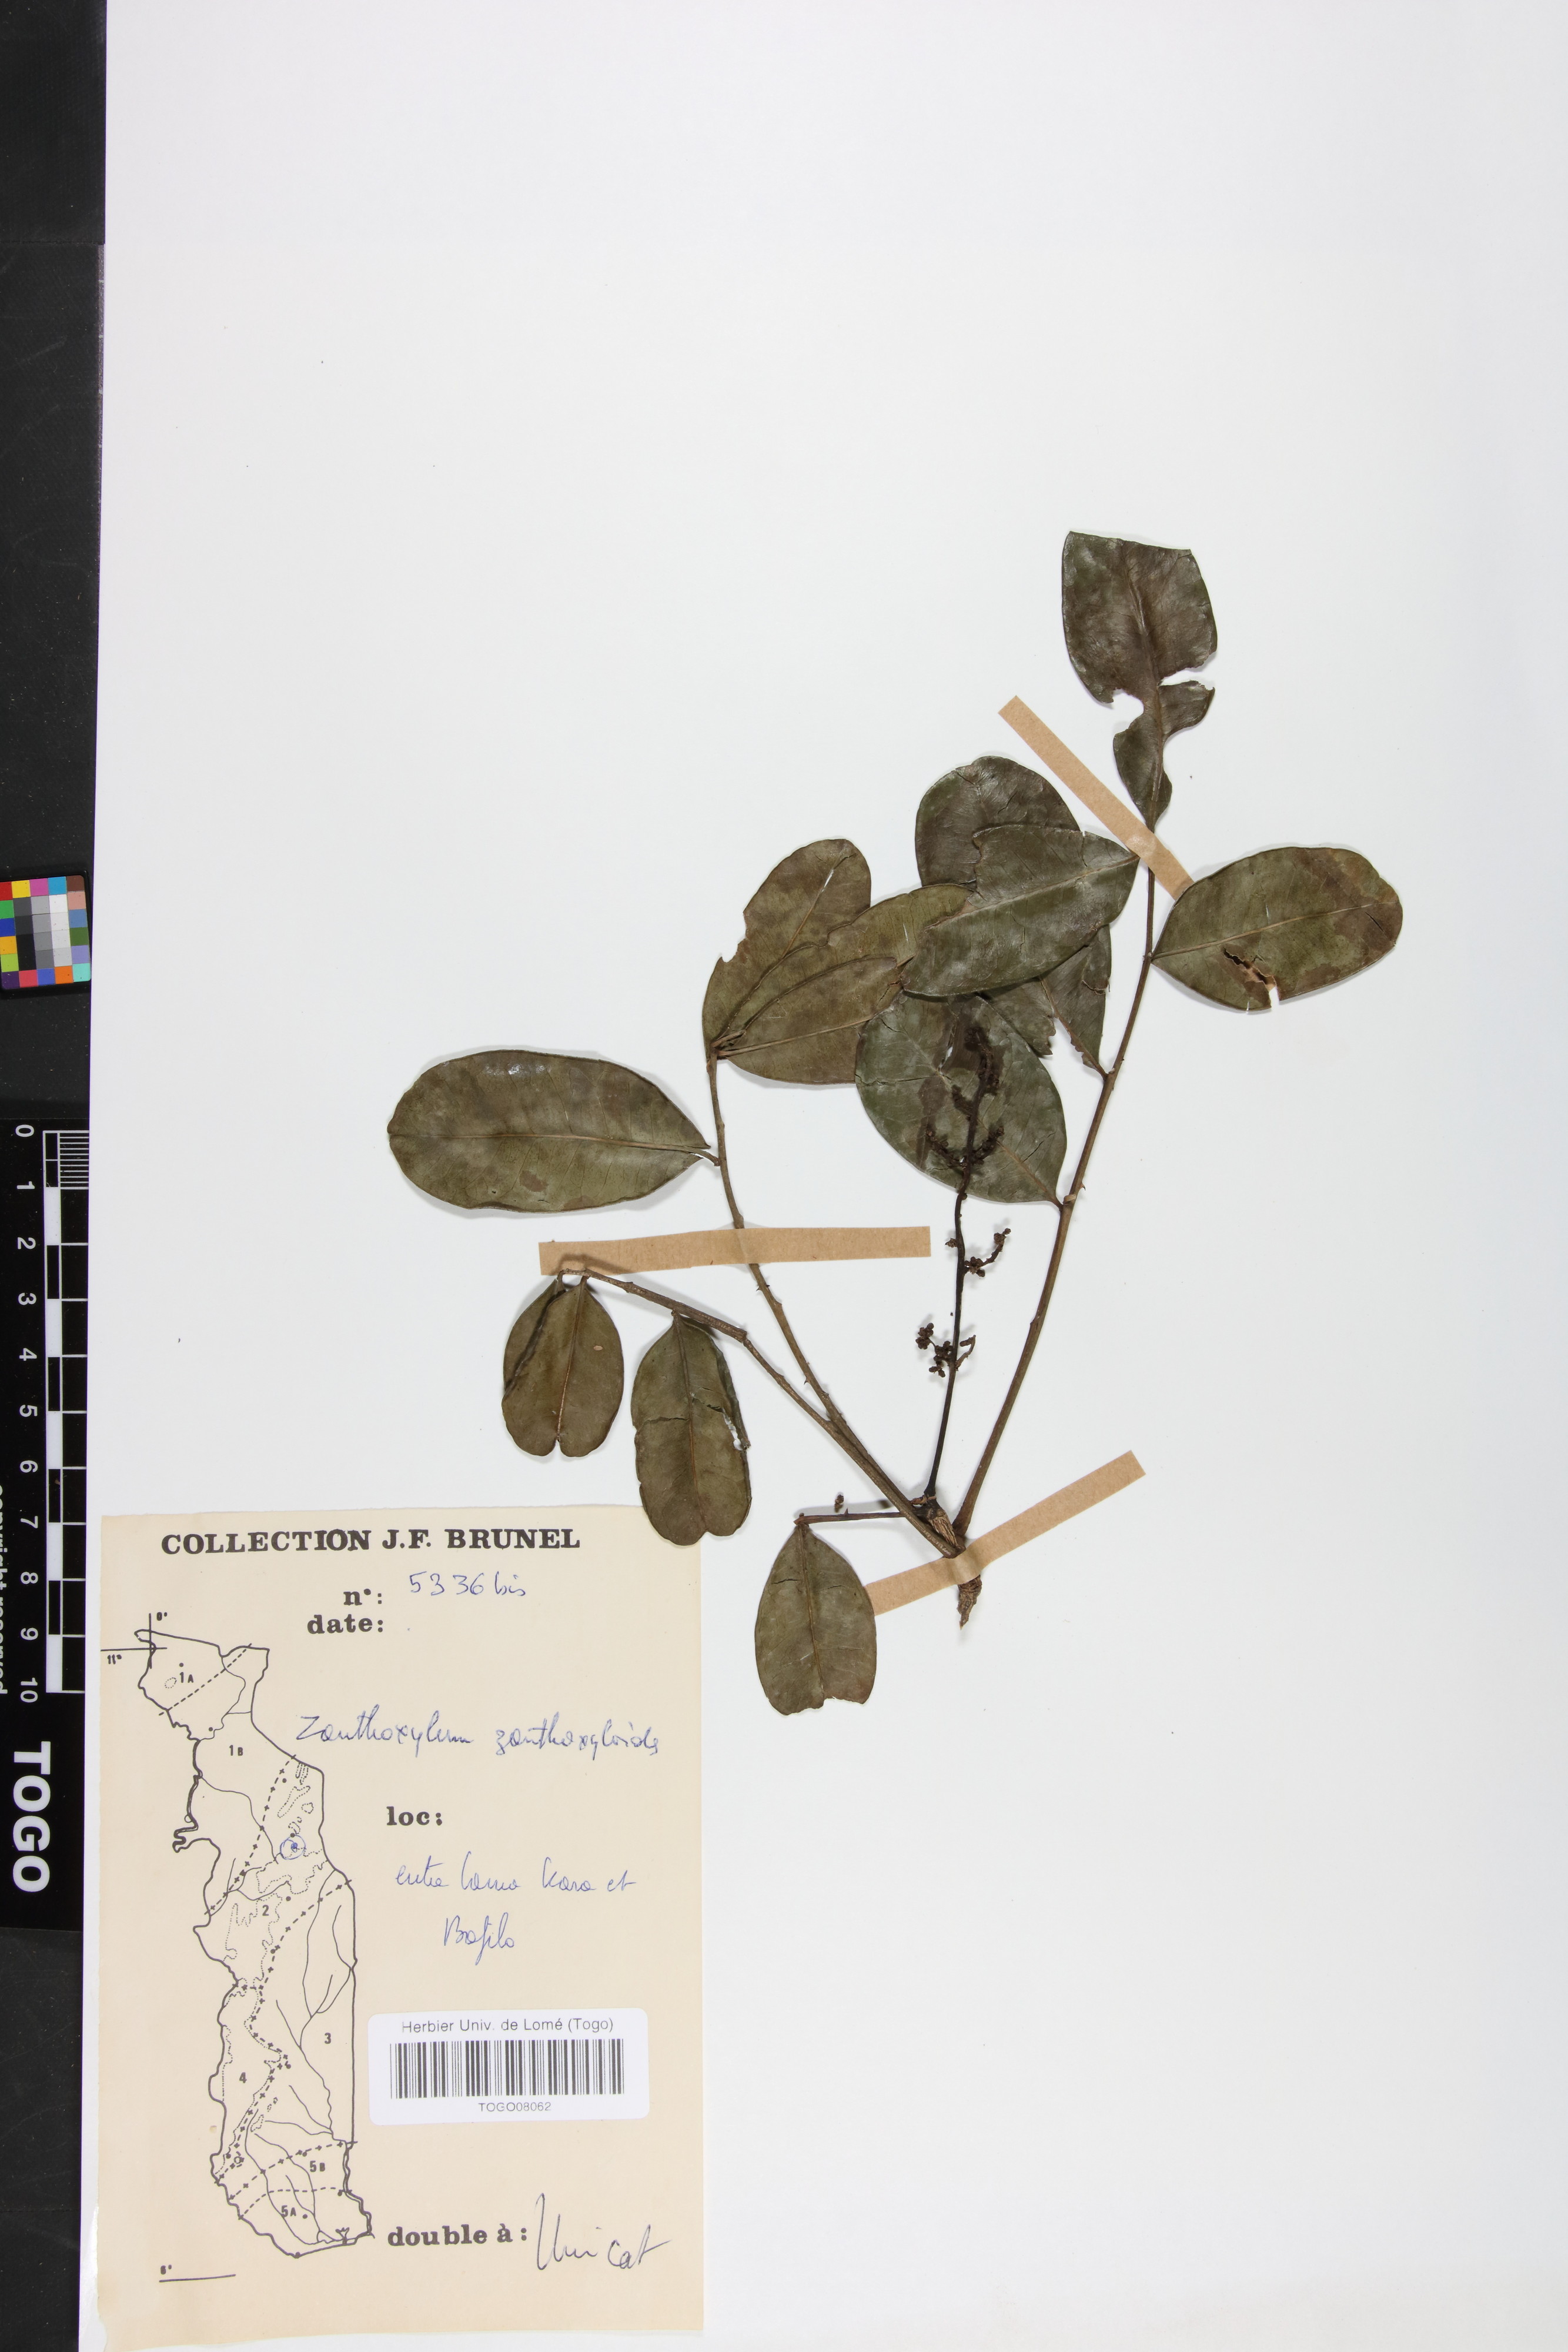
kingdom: Plantae
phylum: Tracheophyta
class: Magnoliopsida
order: Sapindales
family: Rutaceae
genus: Zanthoxylum
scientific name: Zanthoxylum zanthoxyloides
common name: Senegal prickly-ash
